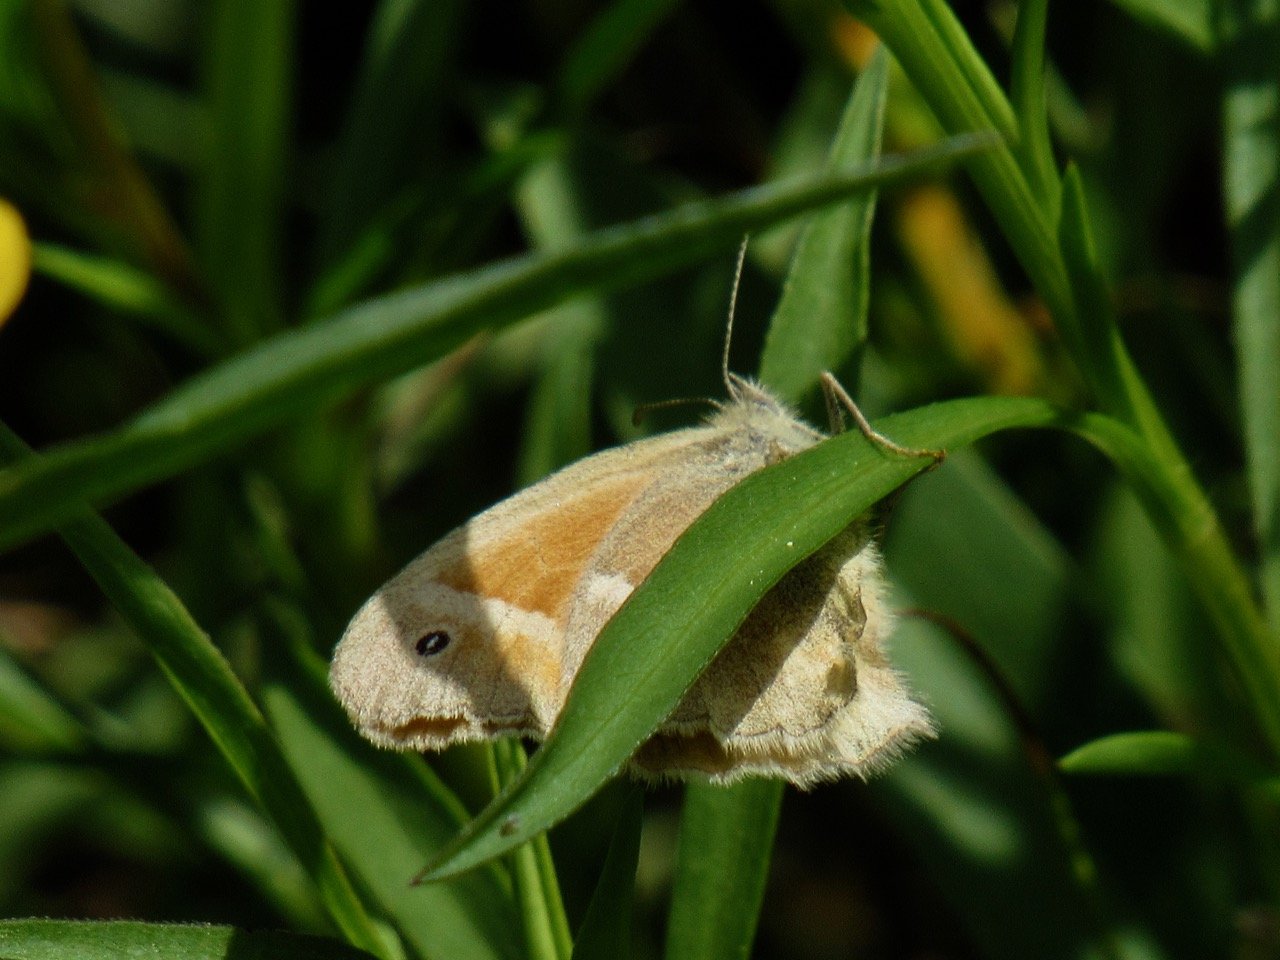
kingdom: Animalia
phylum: Arthropoda
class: Insecta
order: Lepidoptera
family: Nymphalidae
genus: Coenonympha
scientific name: Coenonympha tullia
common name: Large Heath
